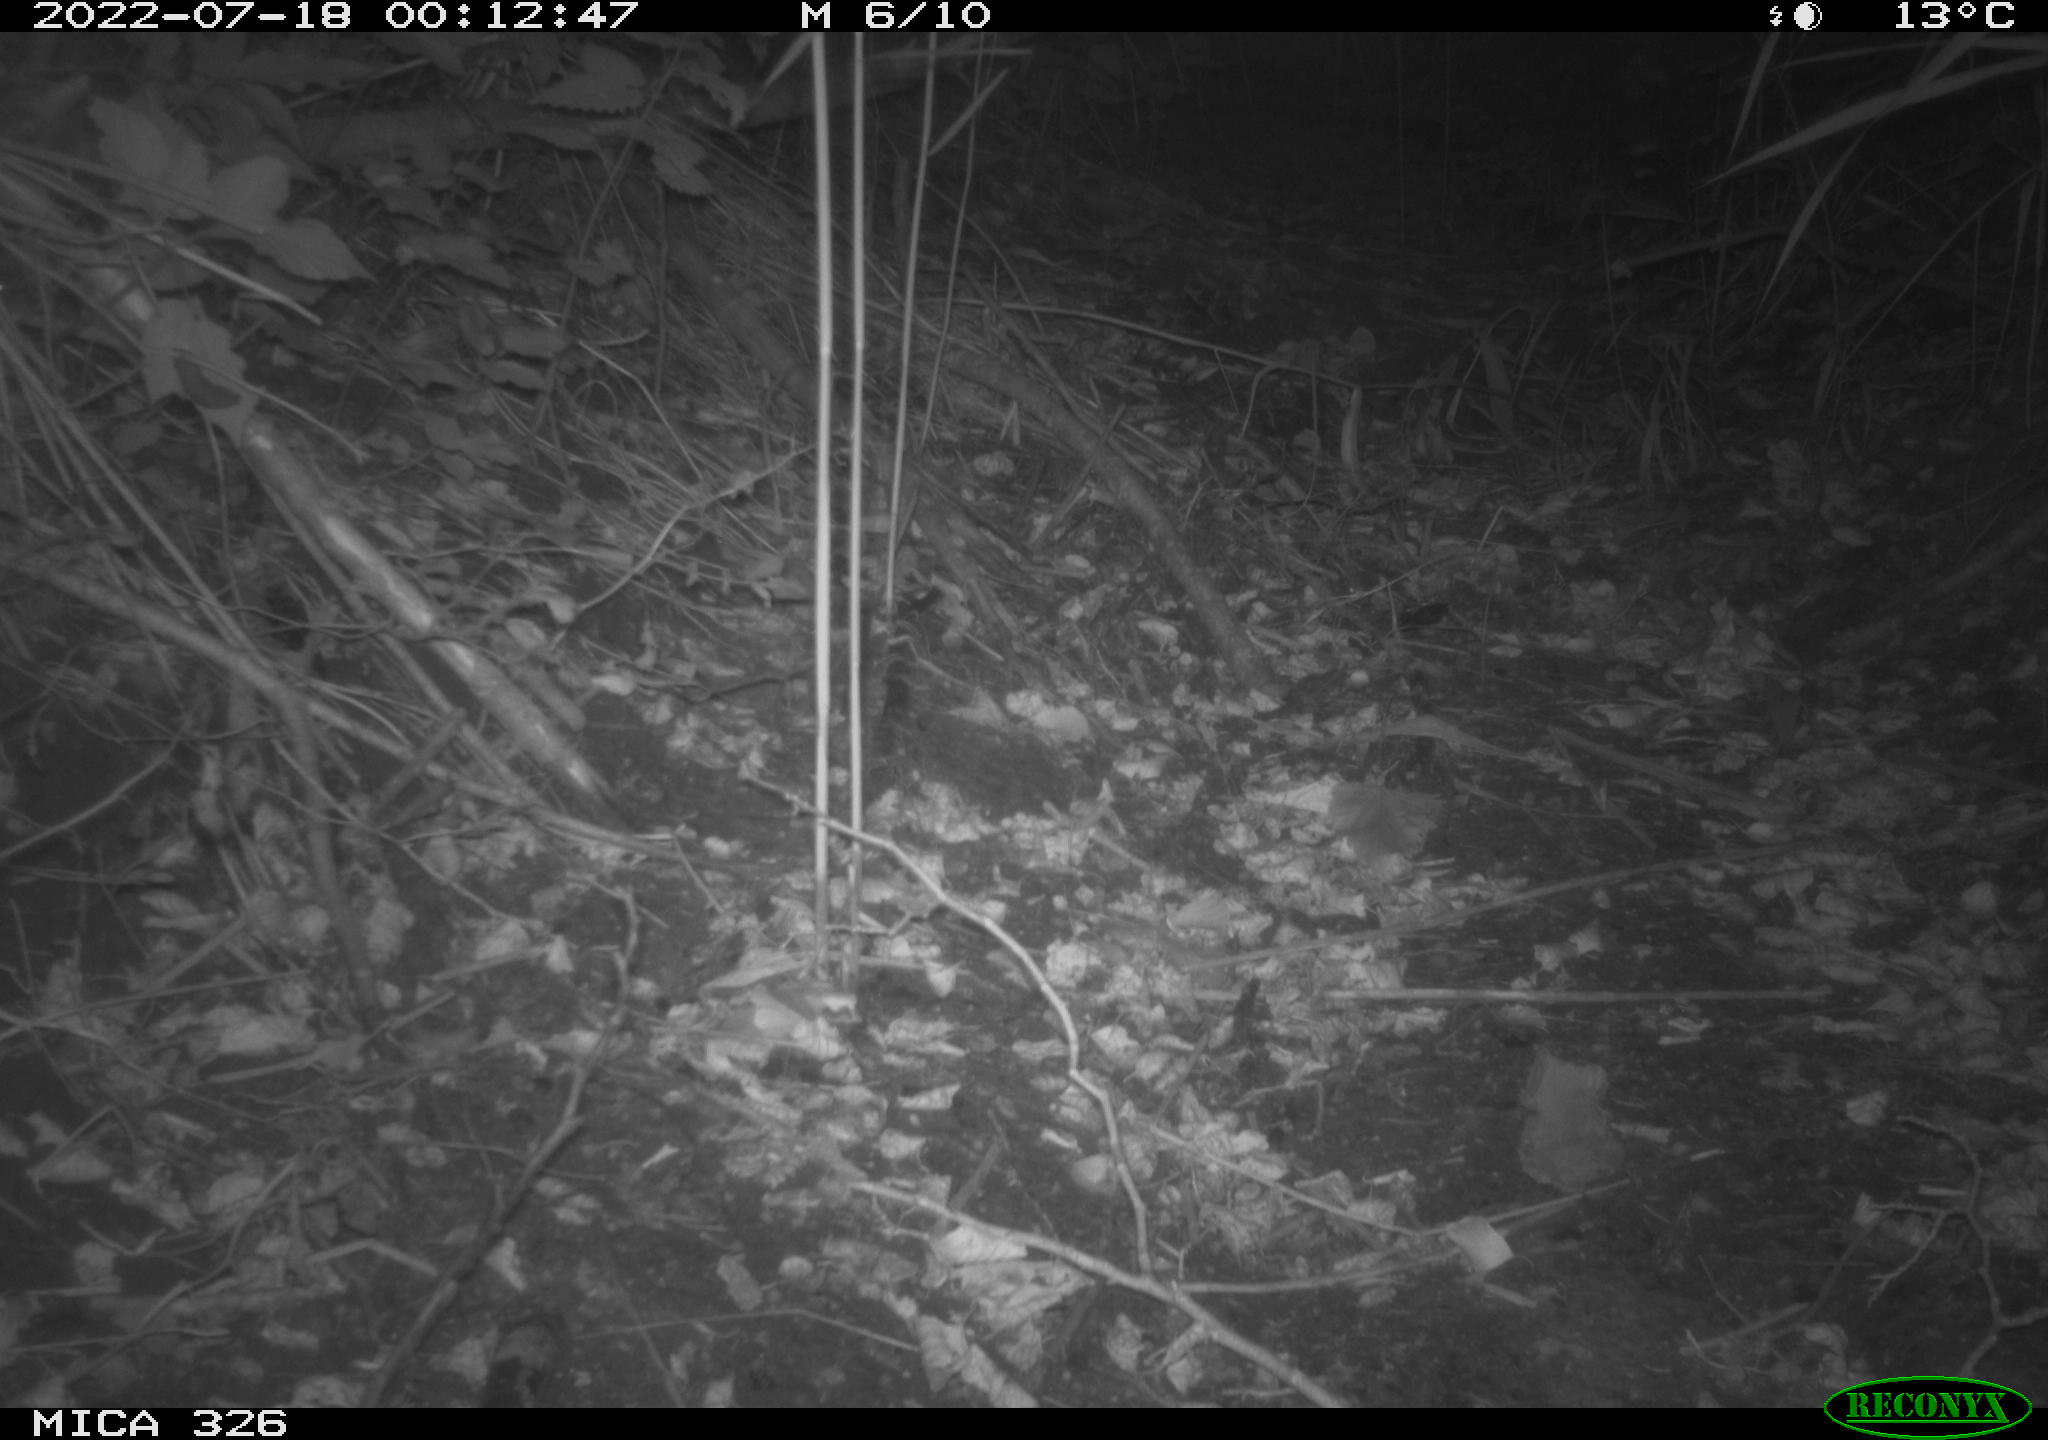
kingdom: Animalia
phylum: Chordata
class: Mammalia
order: Rodentia
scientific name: Rodentia
